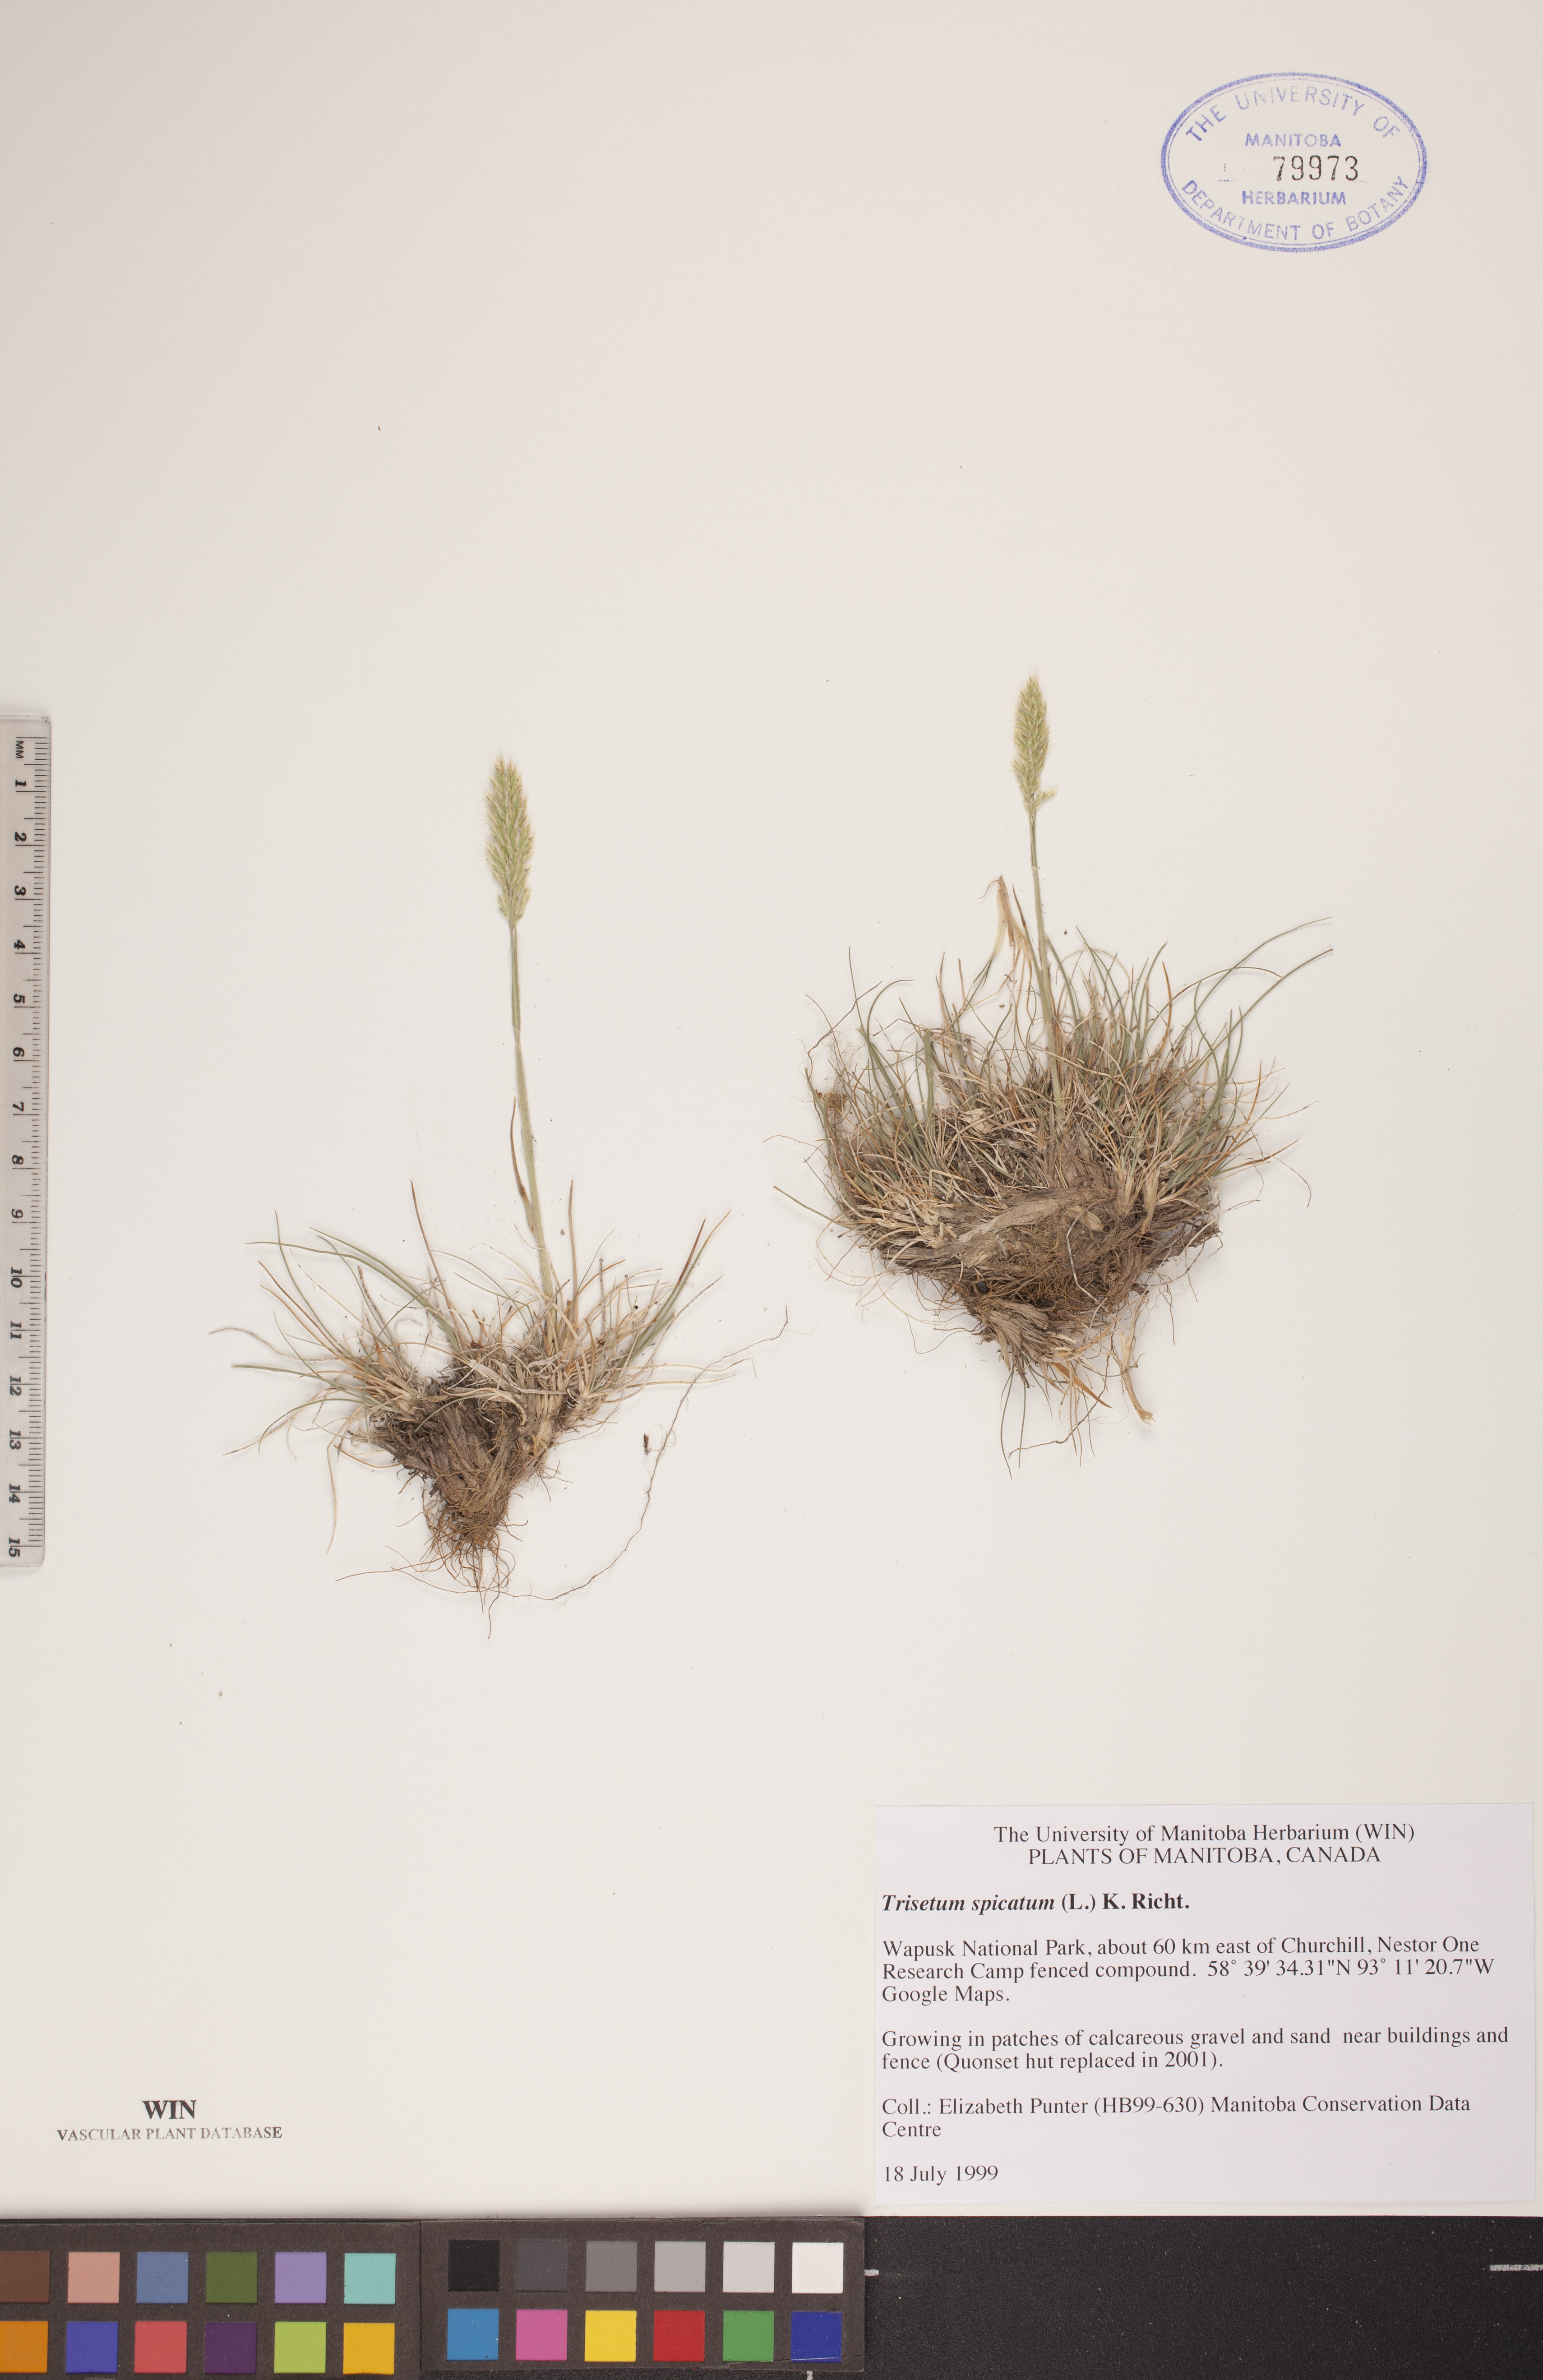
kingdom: Plantae
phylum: Tracheophyta
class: Liliopsida
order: Poales
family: Poaceae
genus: Koeleria
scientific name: Koeleria spicata
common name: Mountain trisetum
